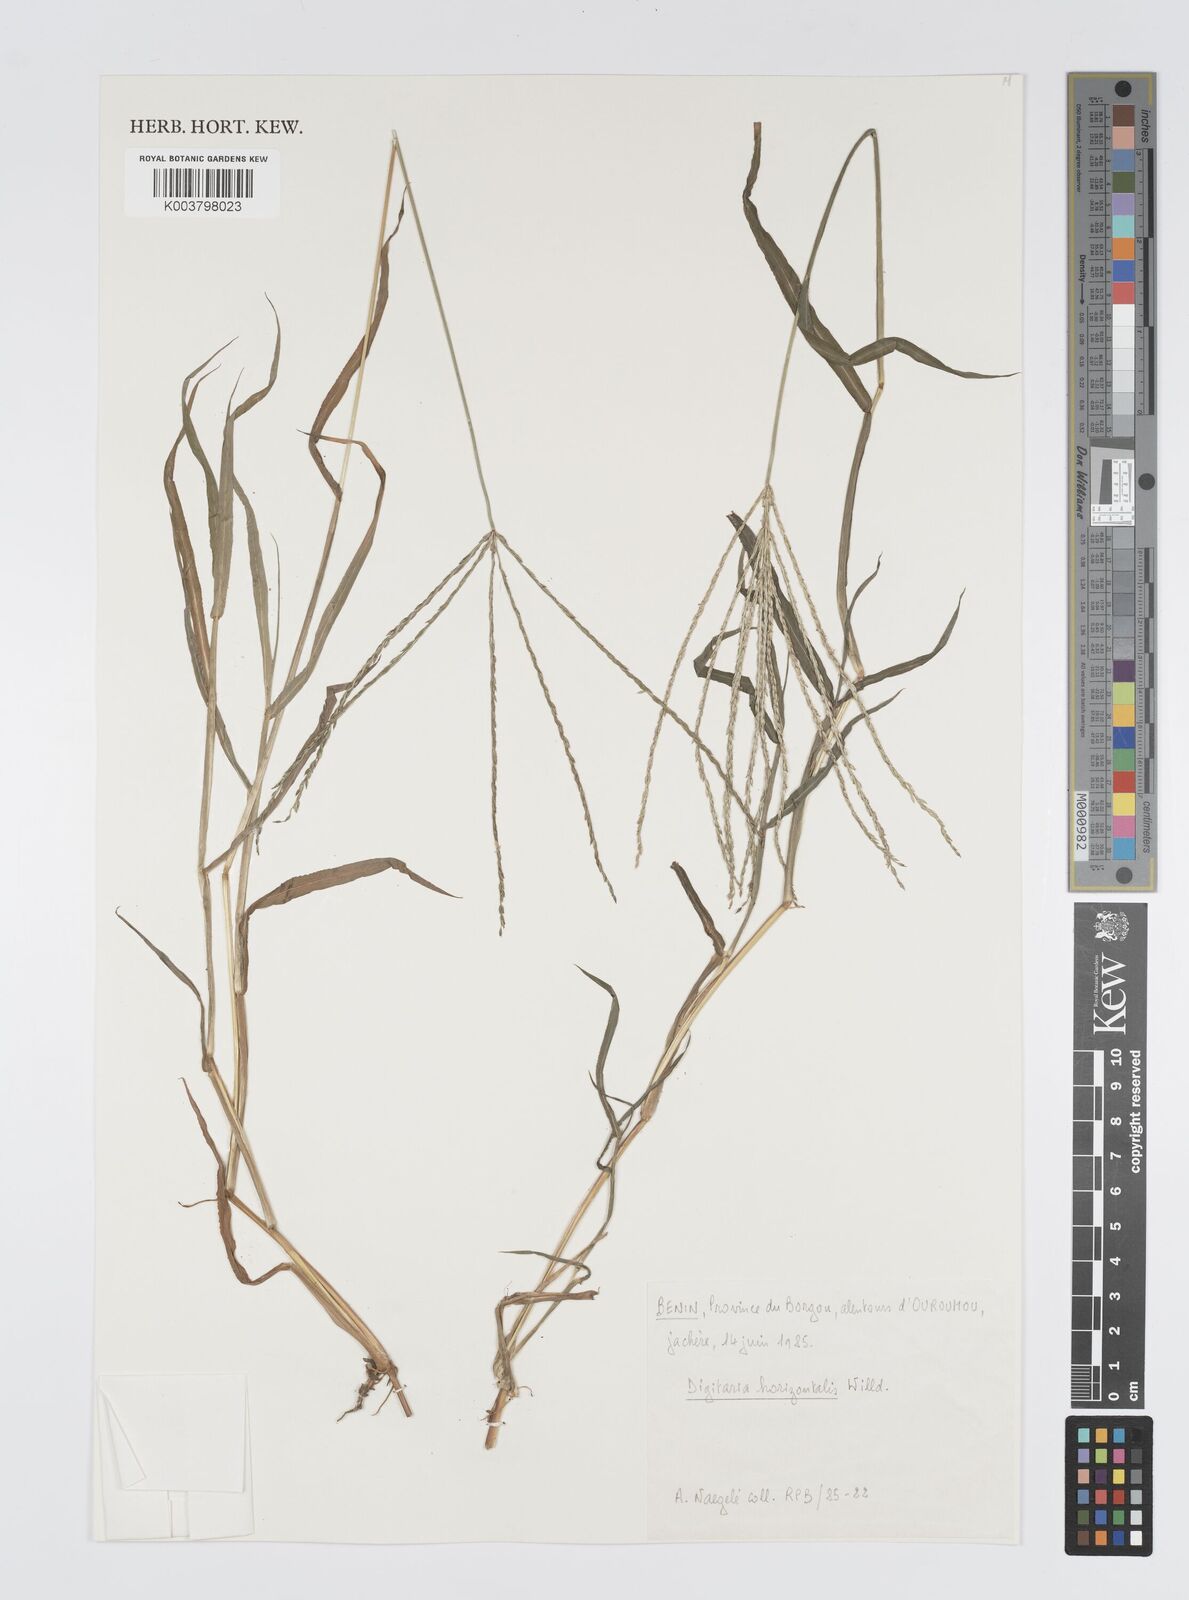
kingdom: Plantae
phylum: Tracheophyta
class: Liliopsida
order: Poales
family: Poaceae
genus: Digitaria
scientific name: Digitaria horizontalis
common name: Jamaican crabgrass
